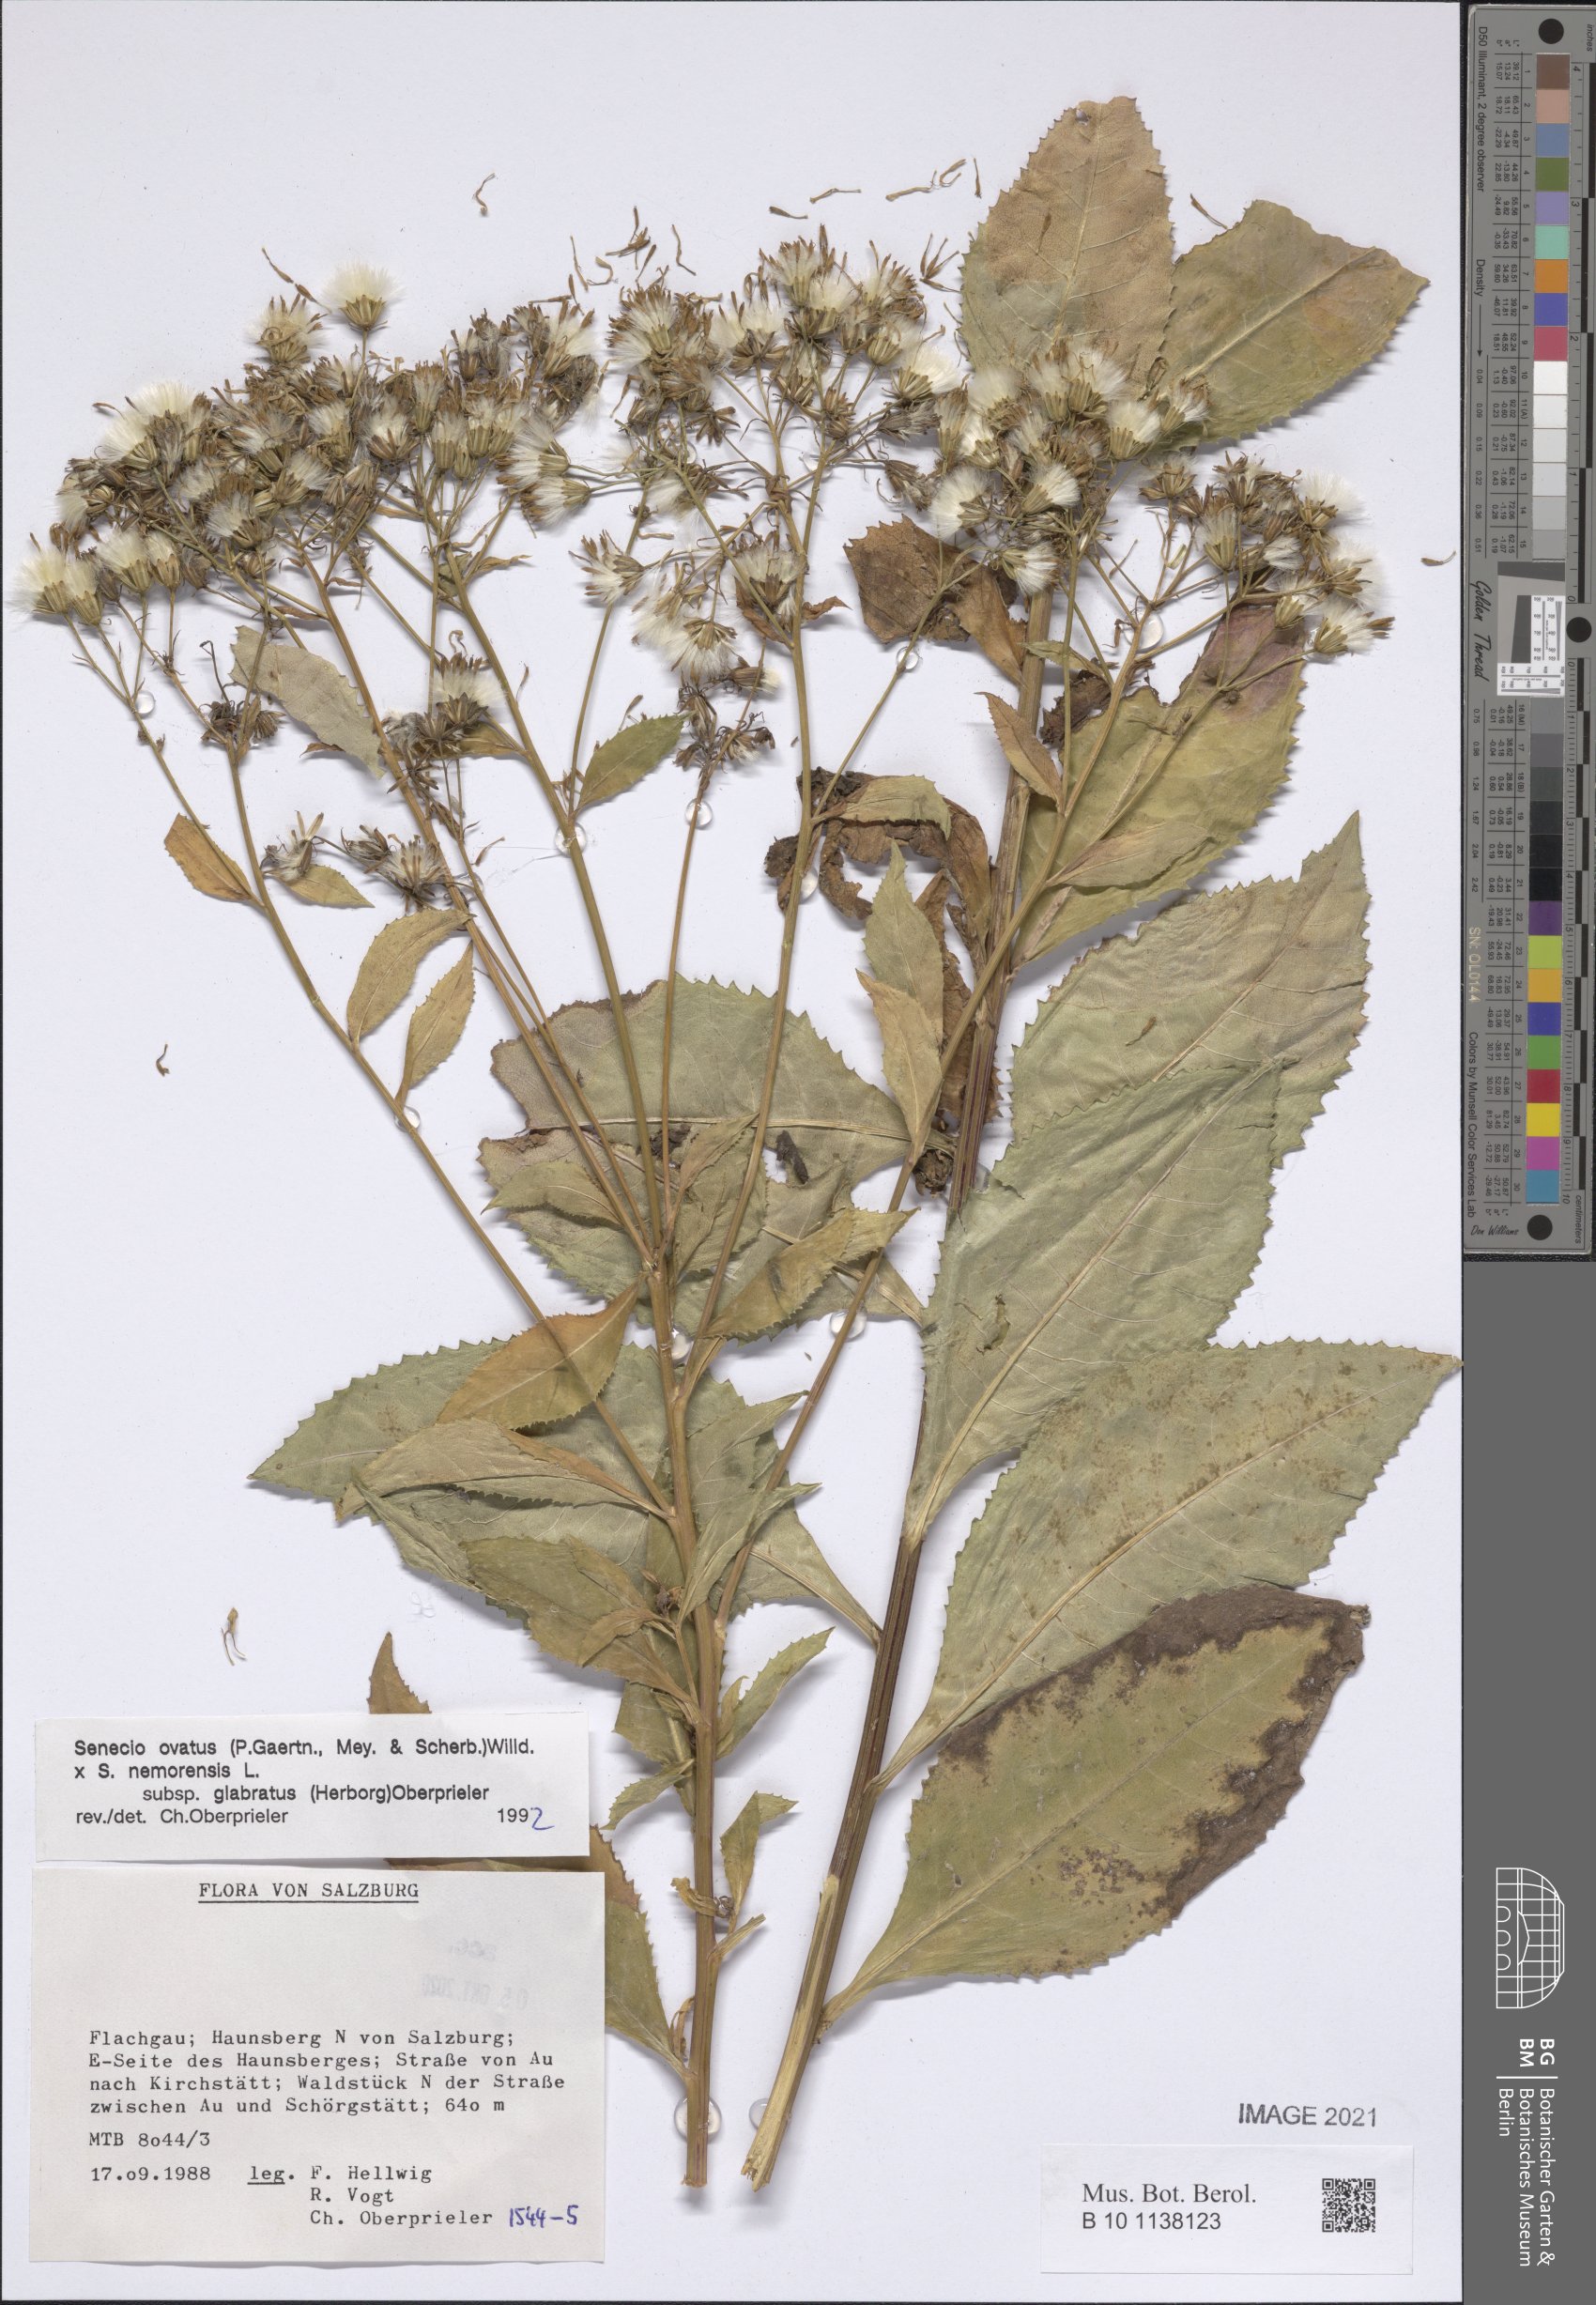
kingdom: Plantae
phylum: Tracheophyta
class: Magnoliopsida
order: Asterales
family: Asteraceae
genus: Senecio
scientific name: Senecio ovatus
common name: Wood ragwort
